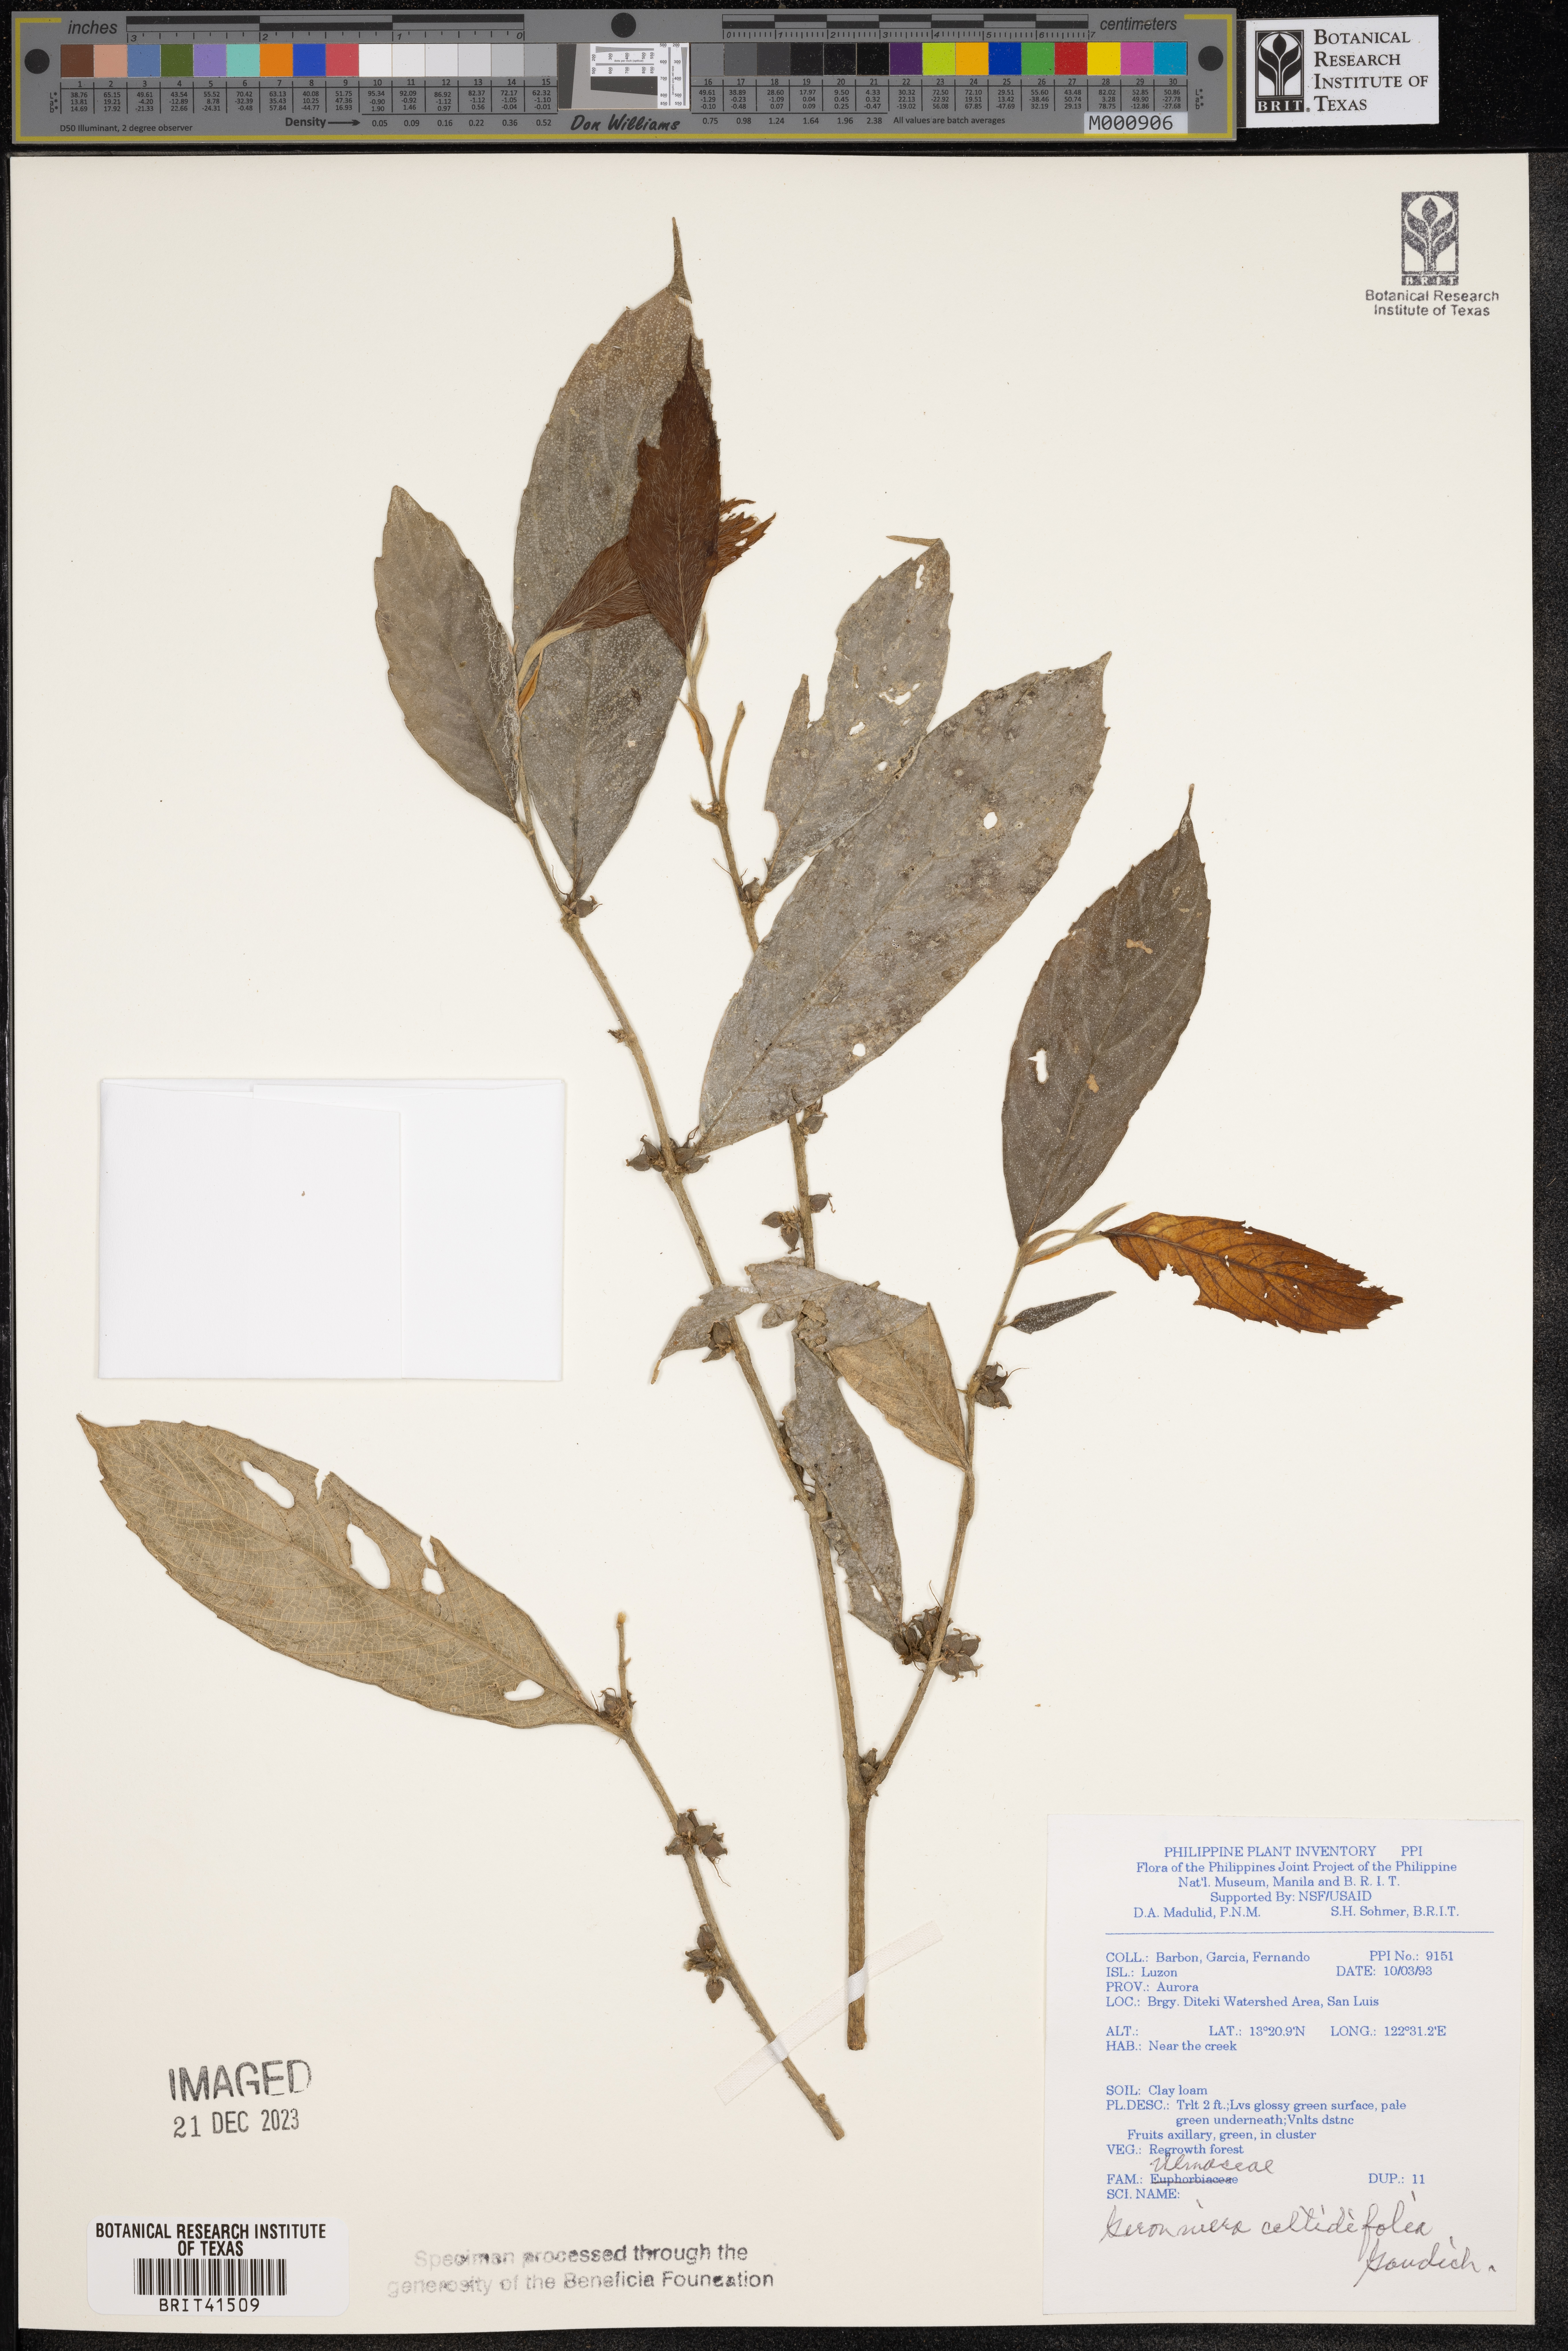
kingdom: Plantae
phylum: Tracheophyta
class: Magnoliopsida
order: Rosales
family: Cannabaceae
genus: Gironniera
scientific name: Gironniera celtidifolia
